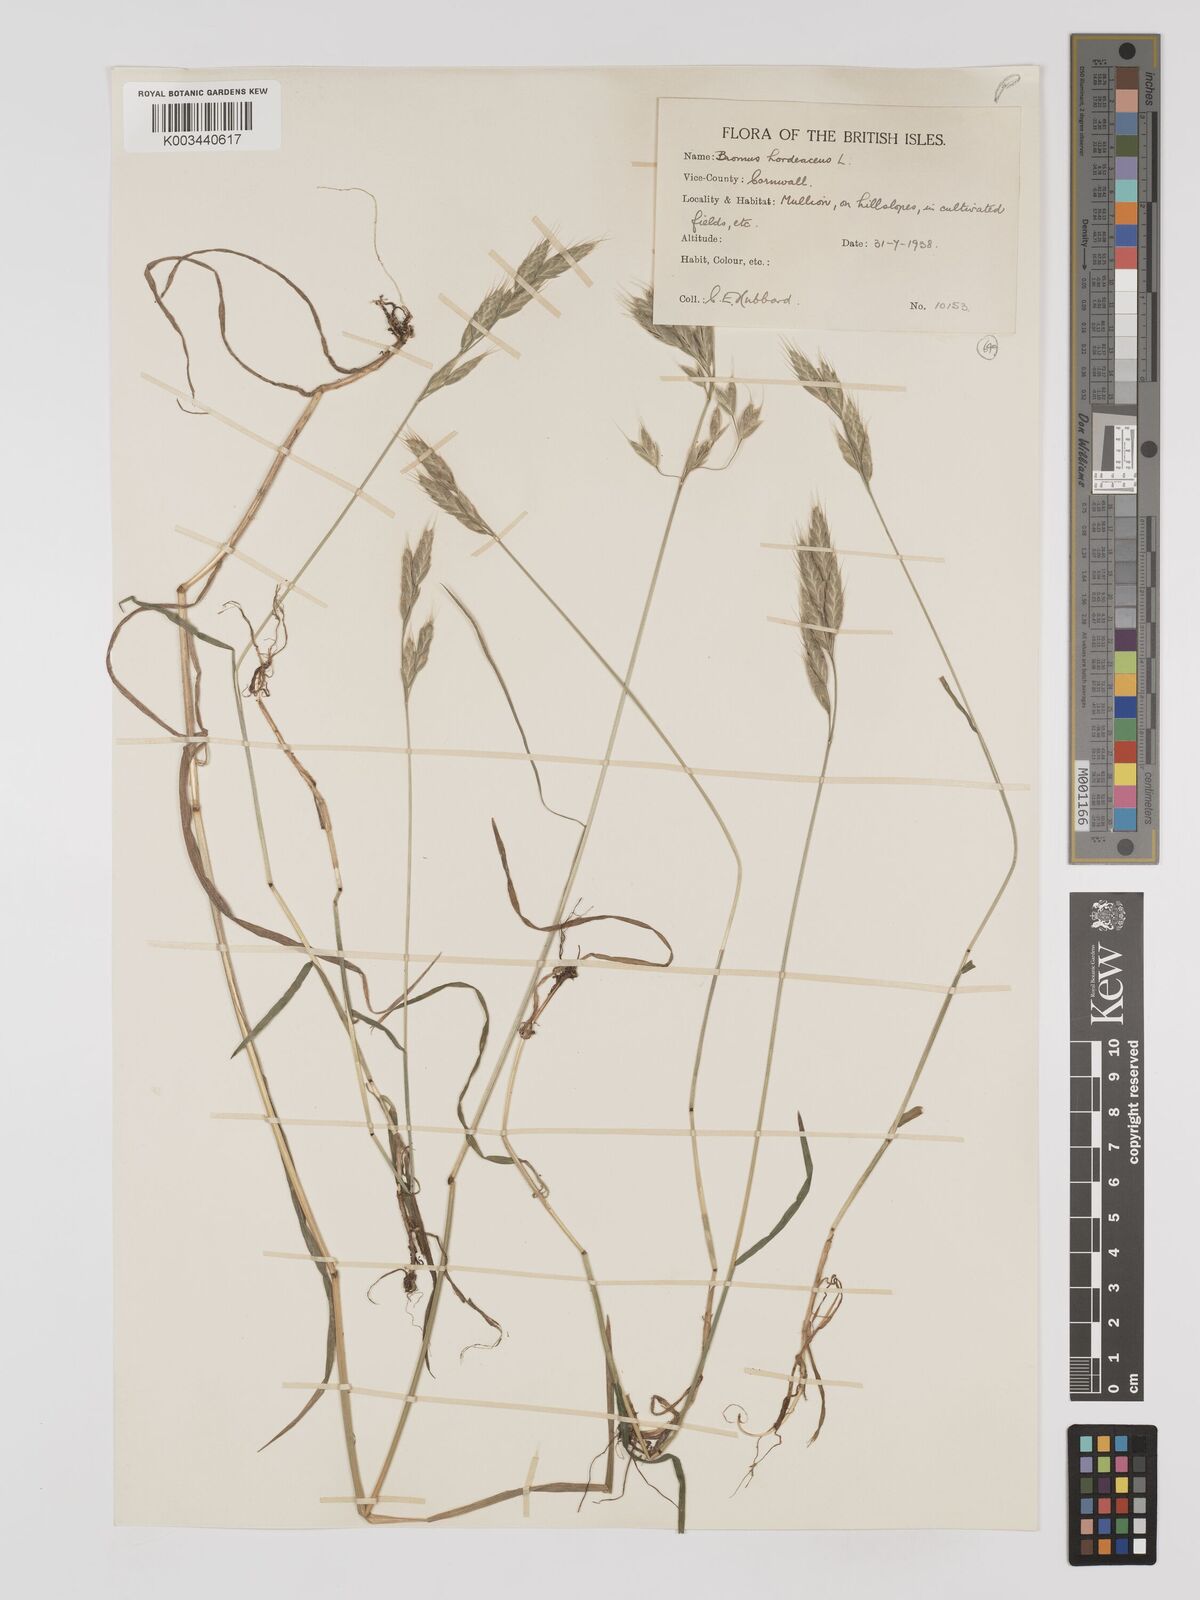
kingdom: Plantae
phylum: Tracheophyta
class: Liliopsida
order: Poales
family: Poaceae
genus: Bromus
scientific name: Bromus hordeaceus
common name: Soft brome
